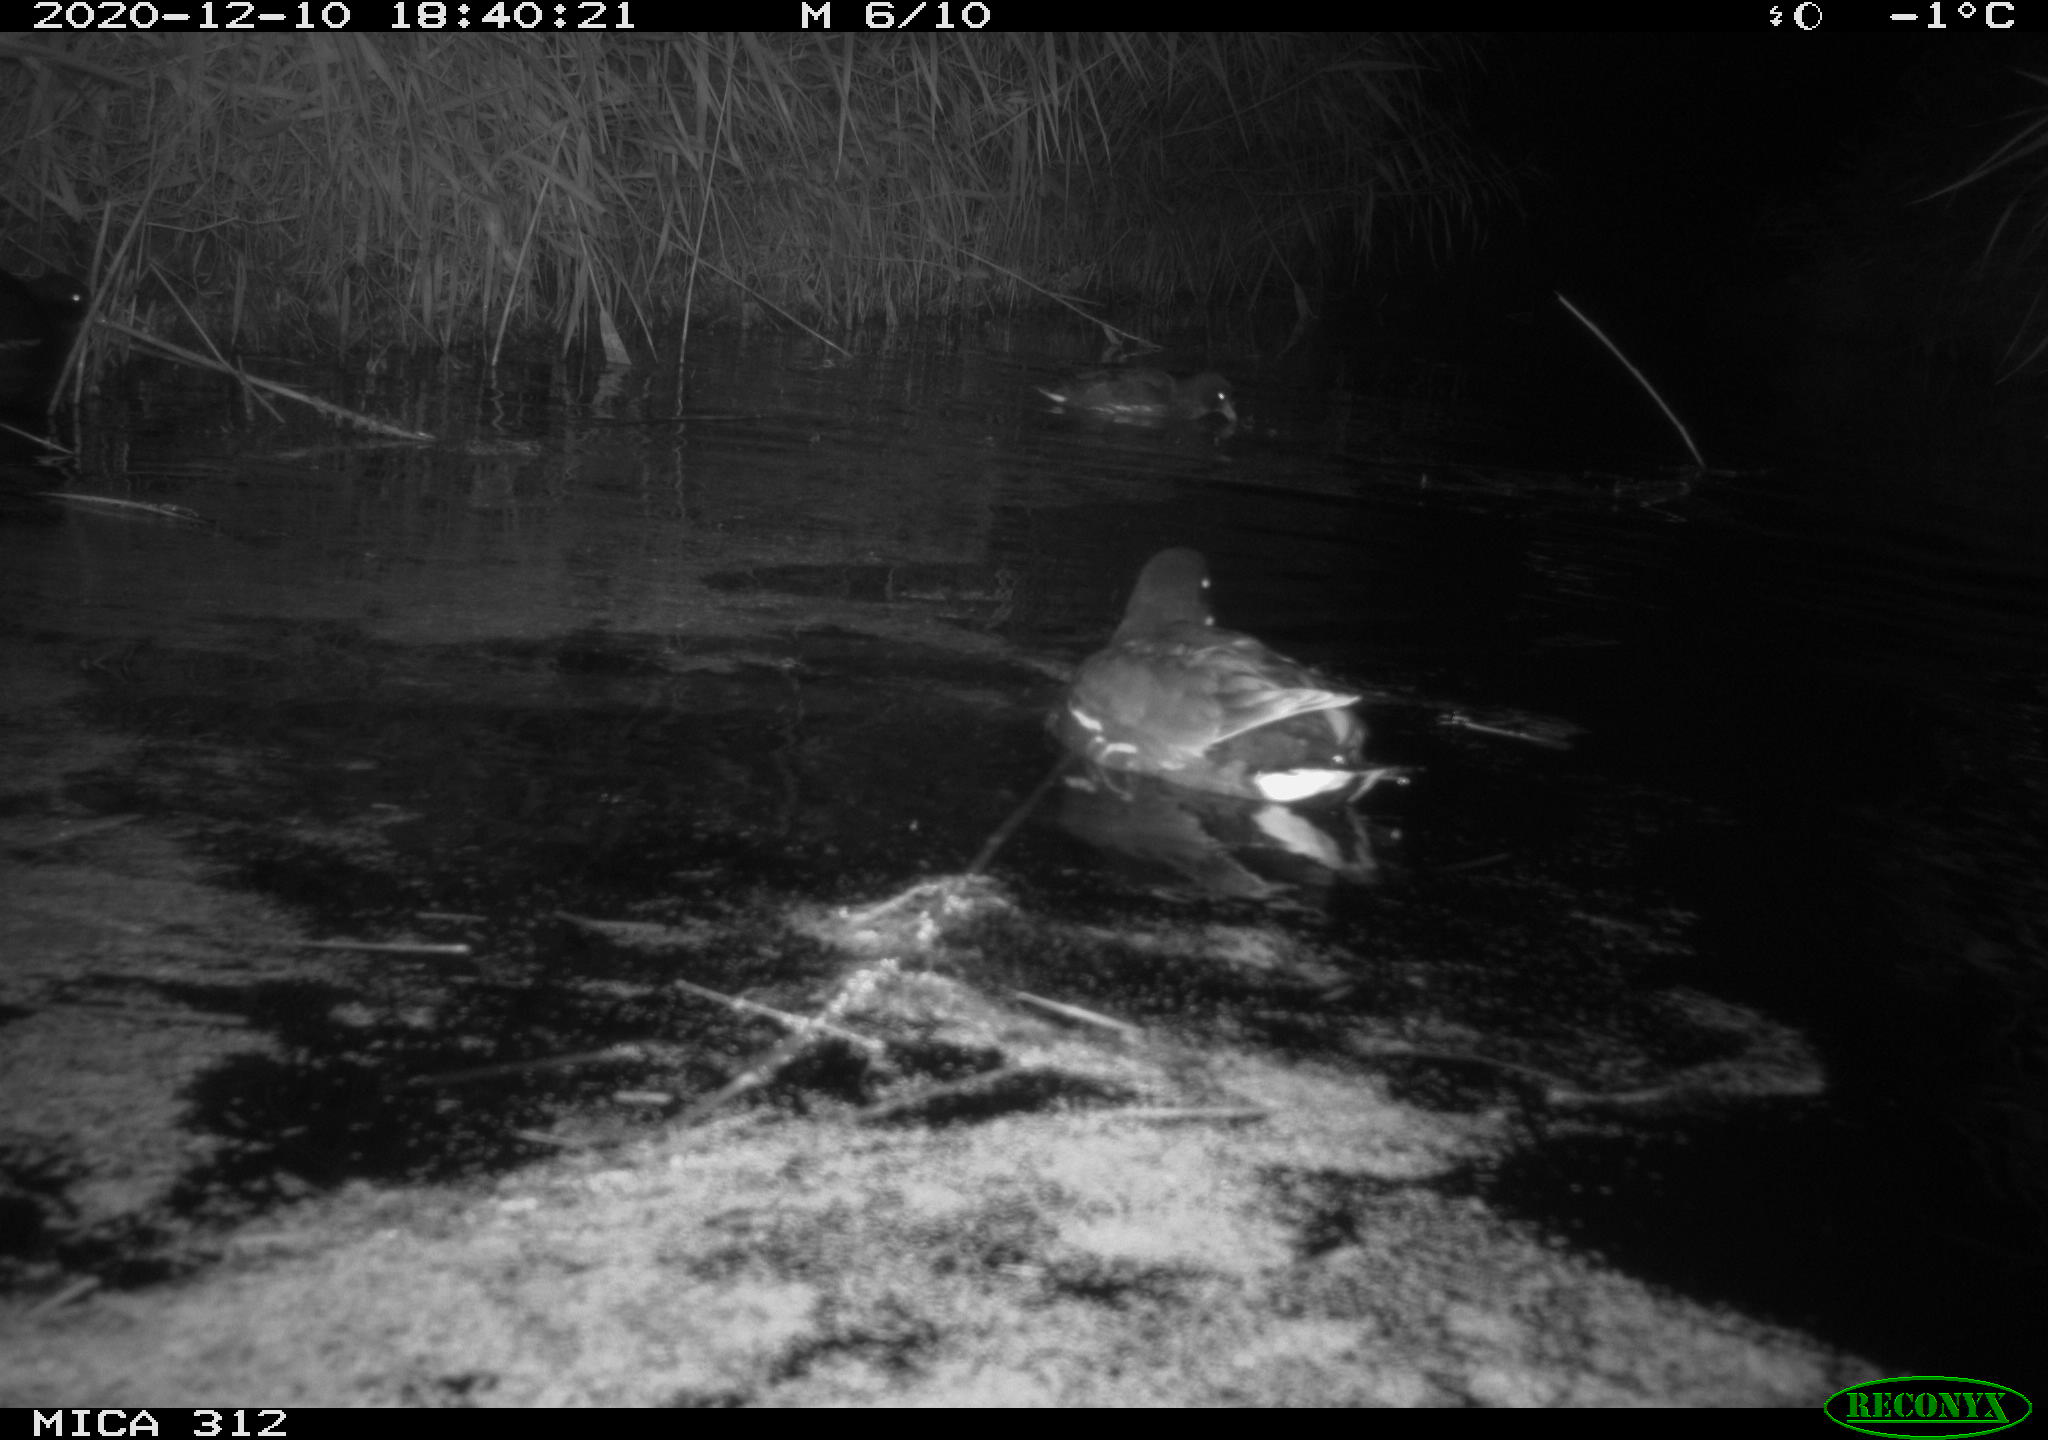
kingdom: Animalia
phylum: Chordata
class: Aves
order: Gruiformes
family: Rallidae
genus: Gallinula
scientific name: Gallinula chloropus
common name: Common moorhen
